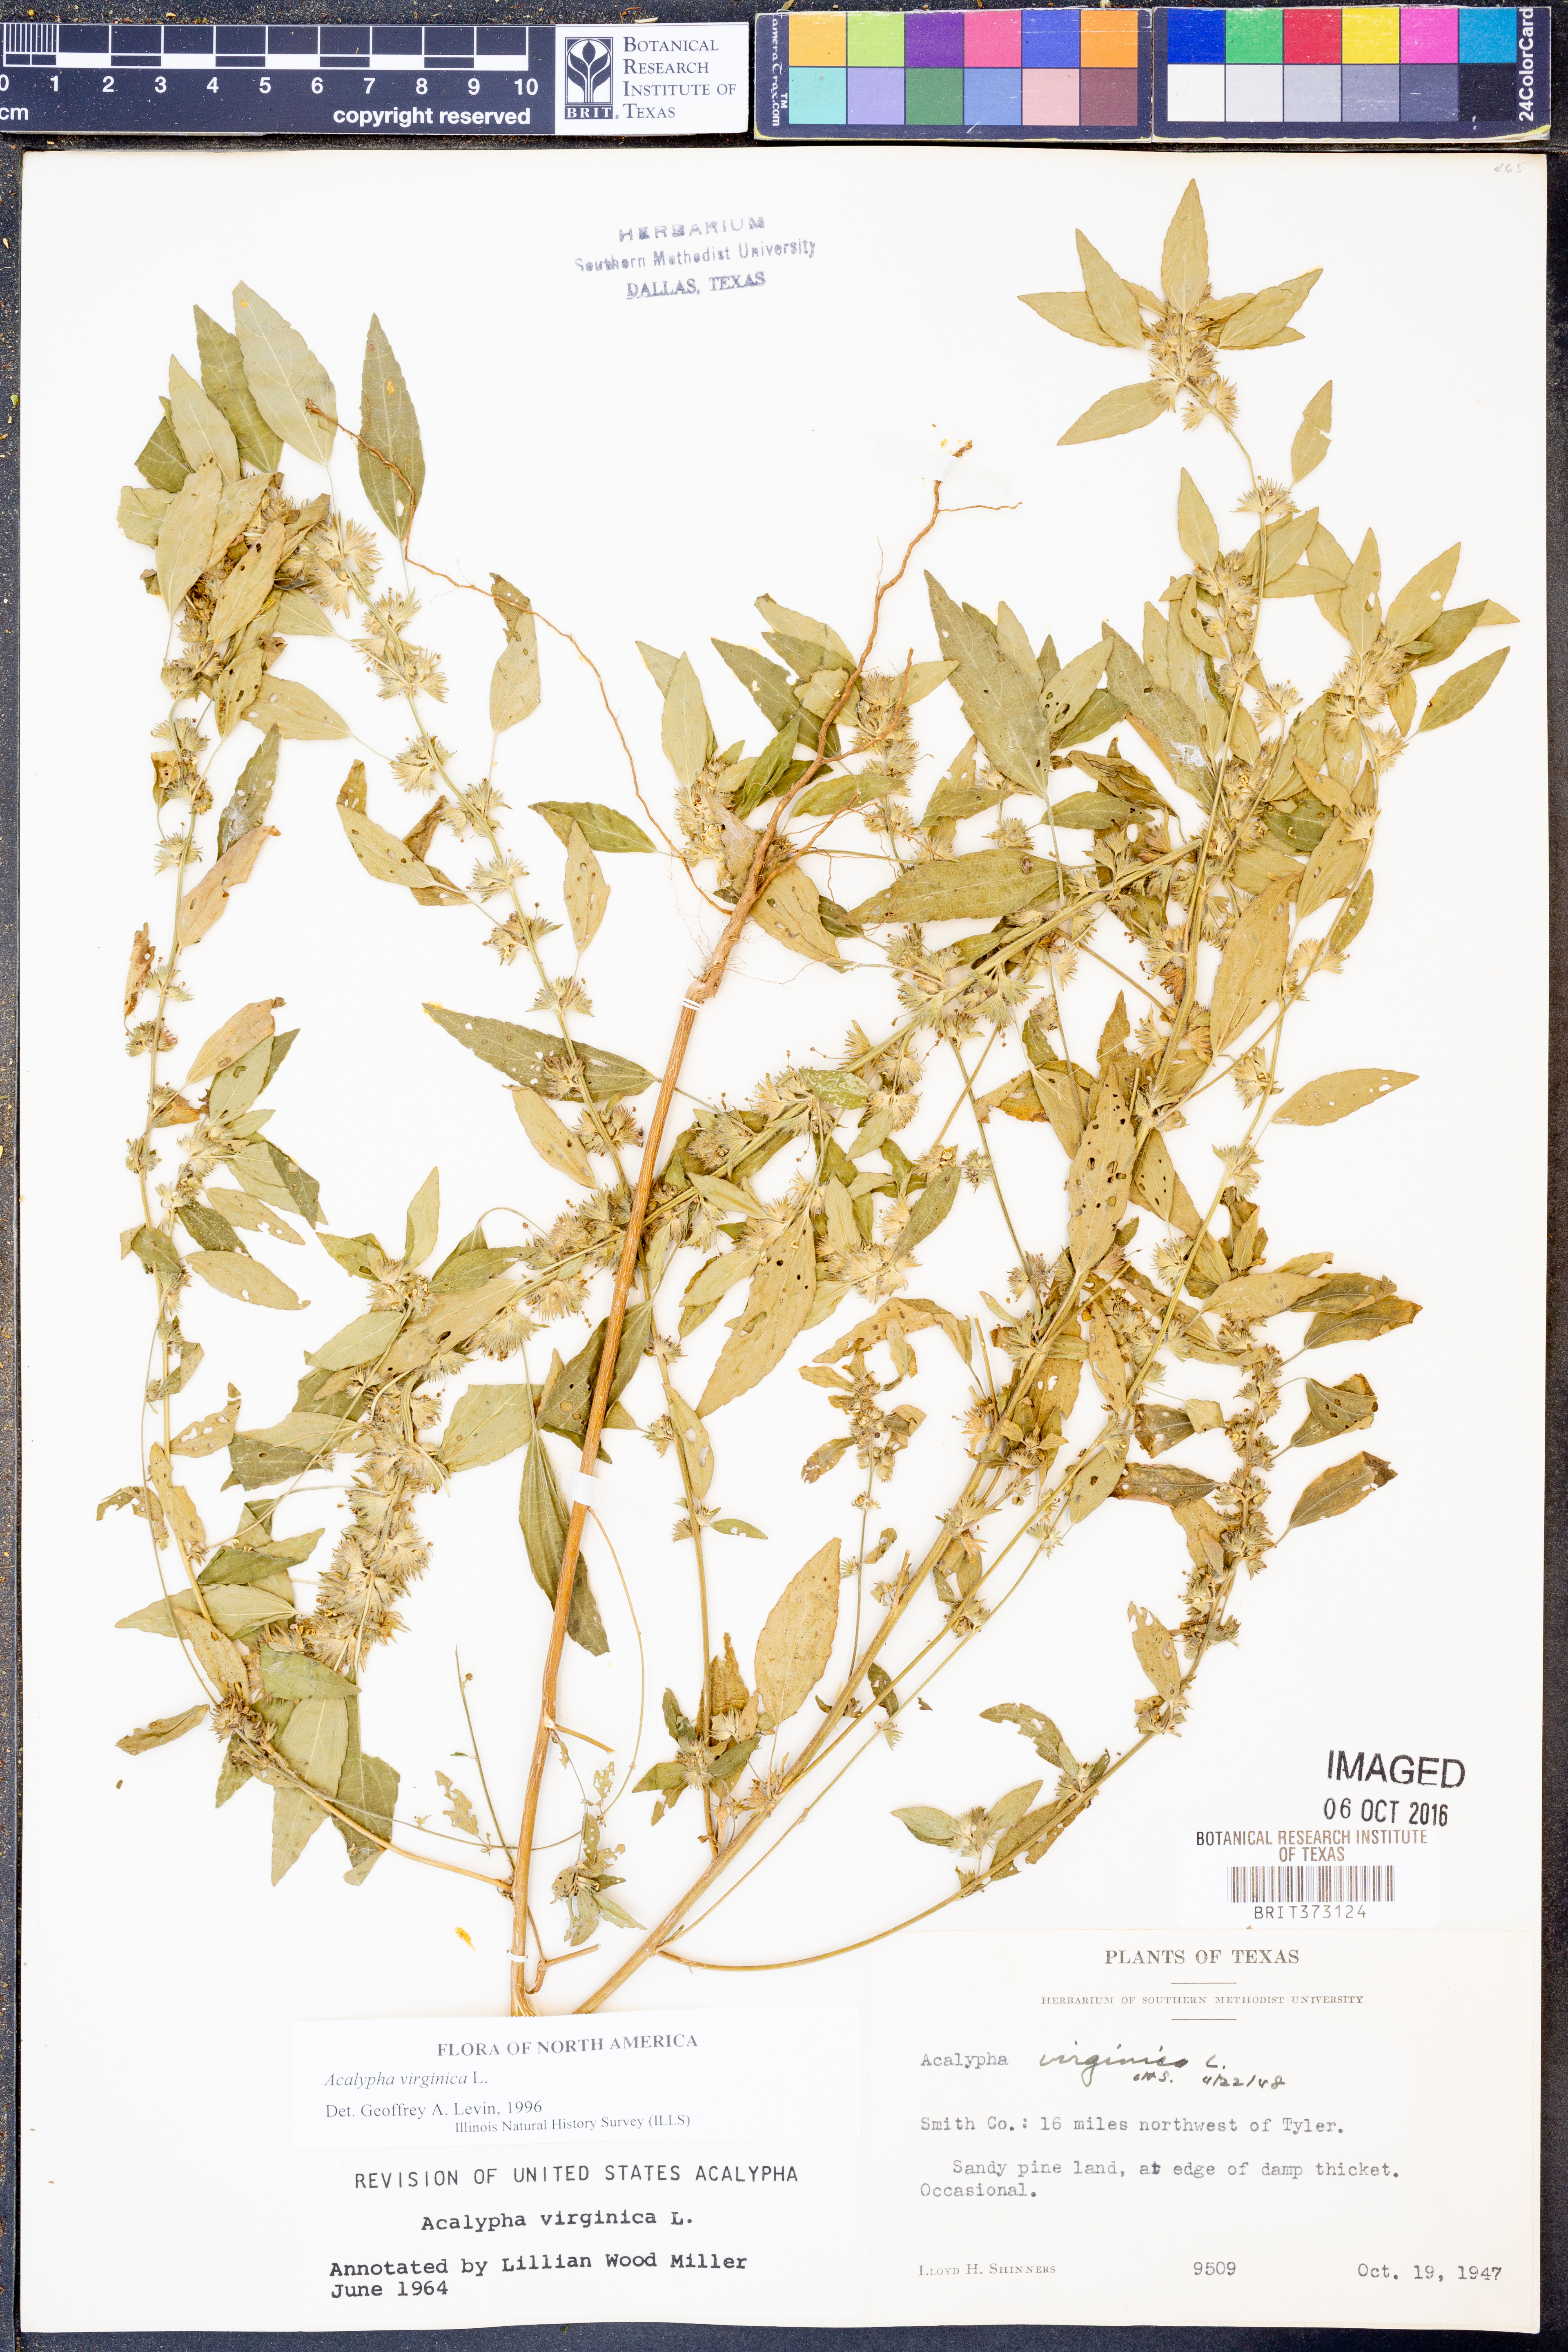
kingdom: Plantae
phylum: Tracheophyta
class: Magnoliopsida
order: Malpighiales
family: Euphorbiaceae
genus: Acalypha
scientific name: Acalypha virginica
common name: Virginia copperleaf
